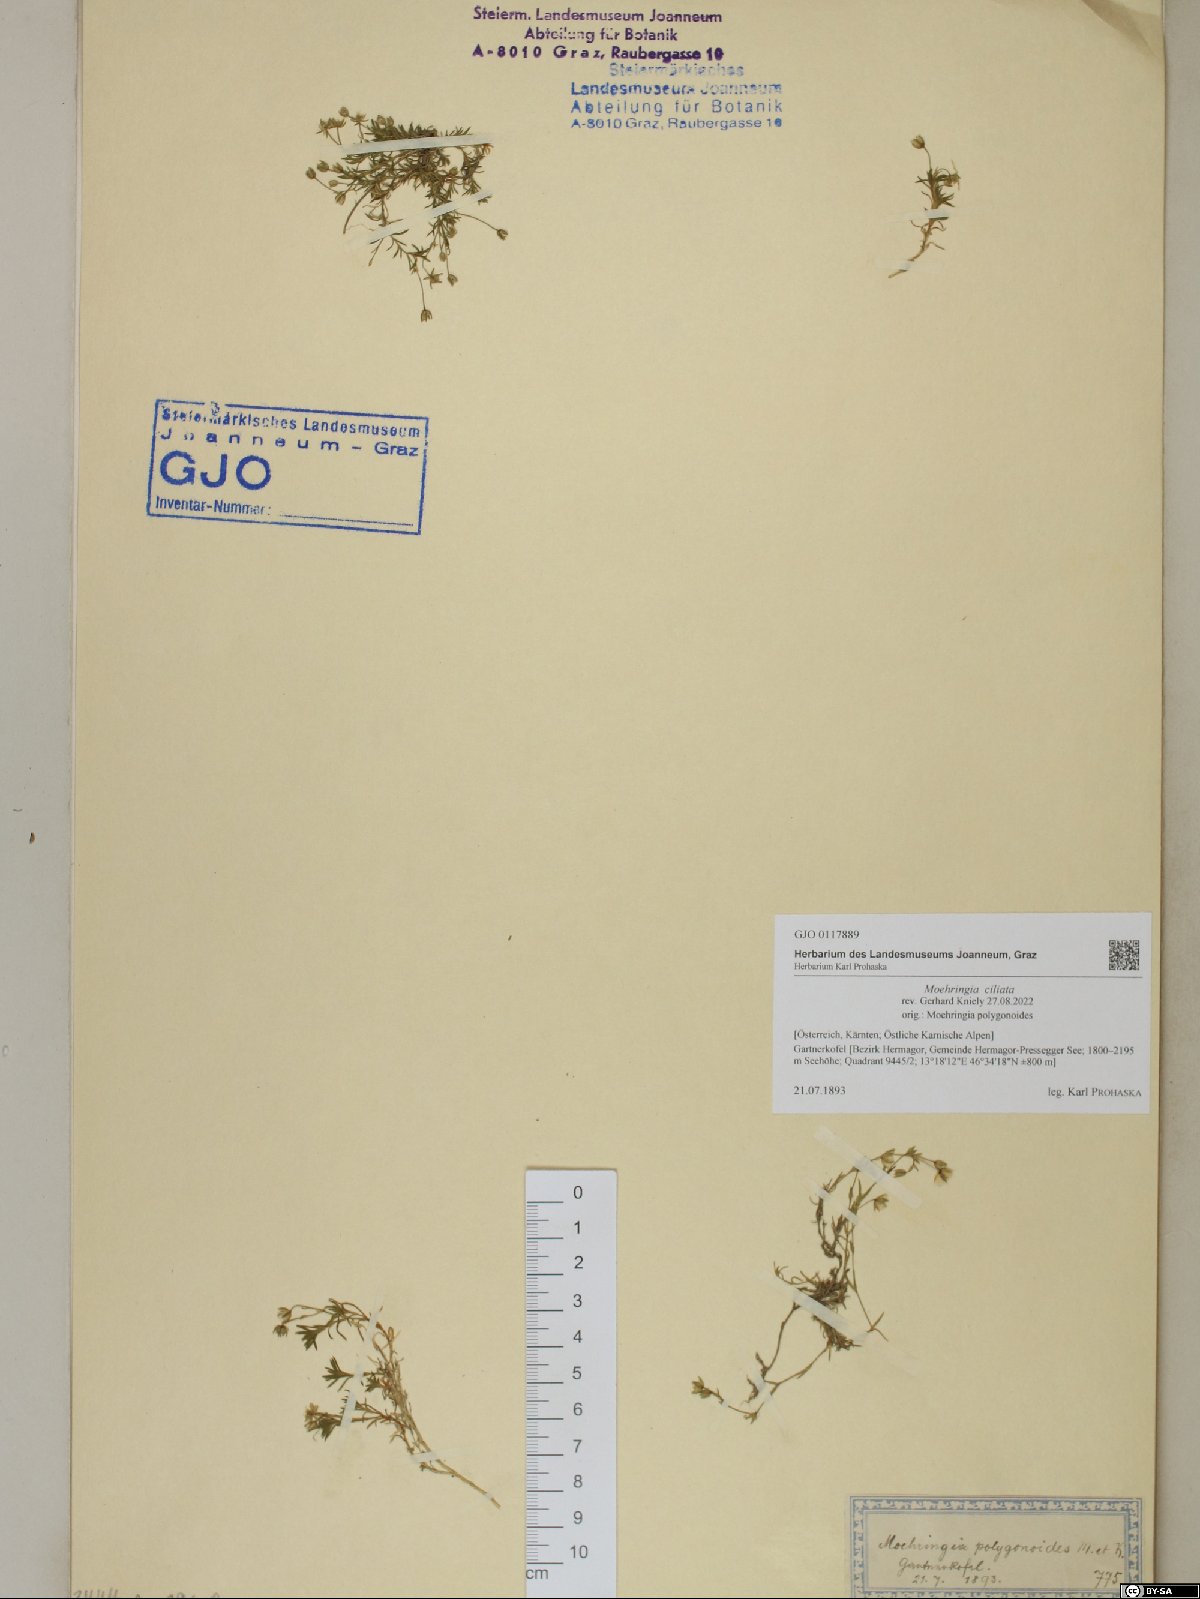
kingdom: Plantae
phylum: Tracheophyta
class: Magnoliopsida
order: Caryophyllales
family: Caryophyllaceae
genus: Moehringia
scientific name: Moehringia ciliata
